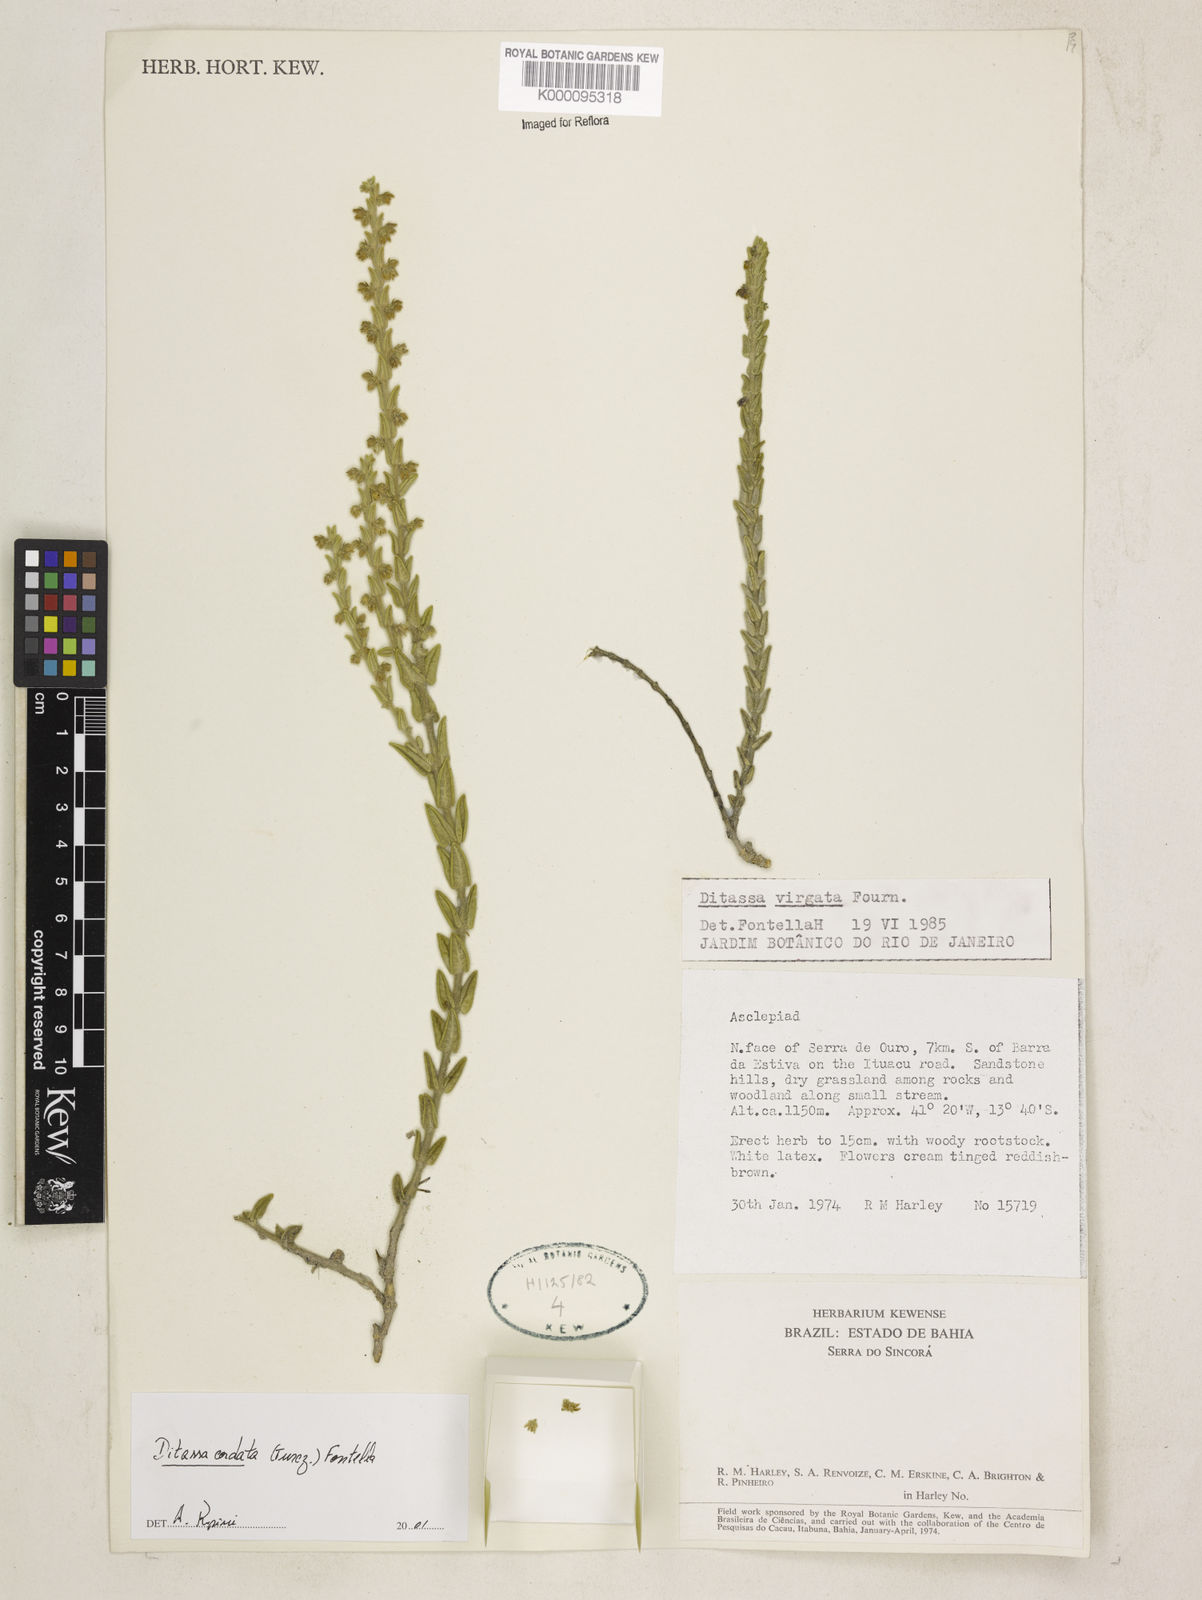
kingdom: Plantae
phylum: Tracheophyta
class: Magnoliopsida
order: Gentianales
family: Apocynaceae
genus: Minaria
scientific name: Minaria cordata
